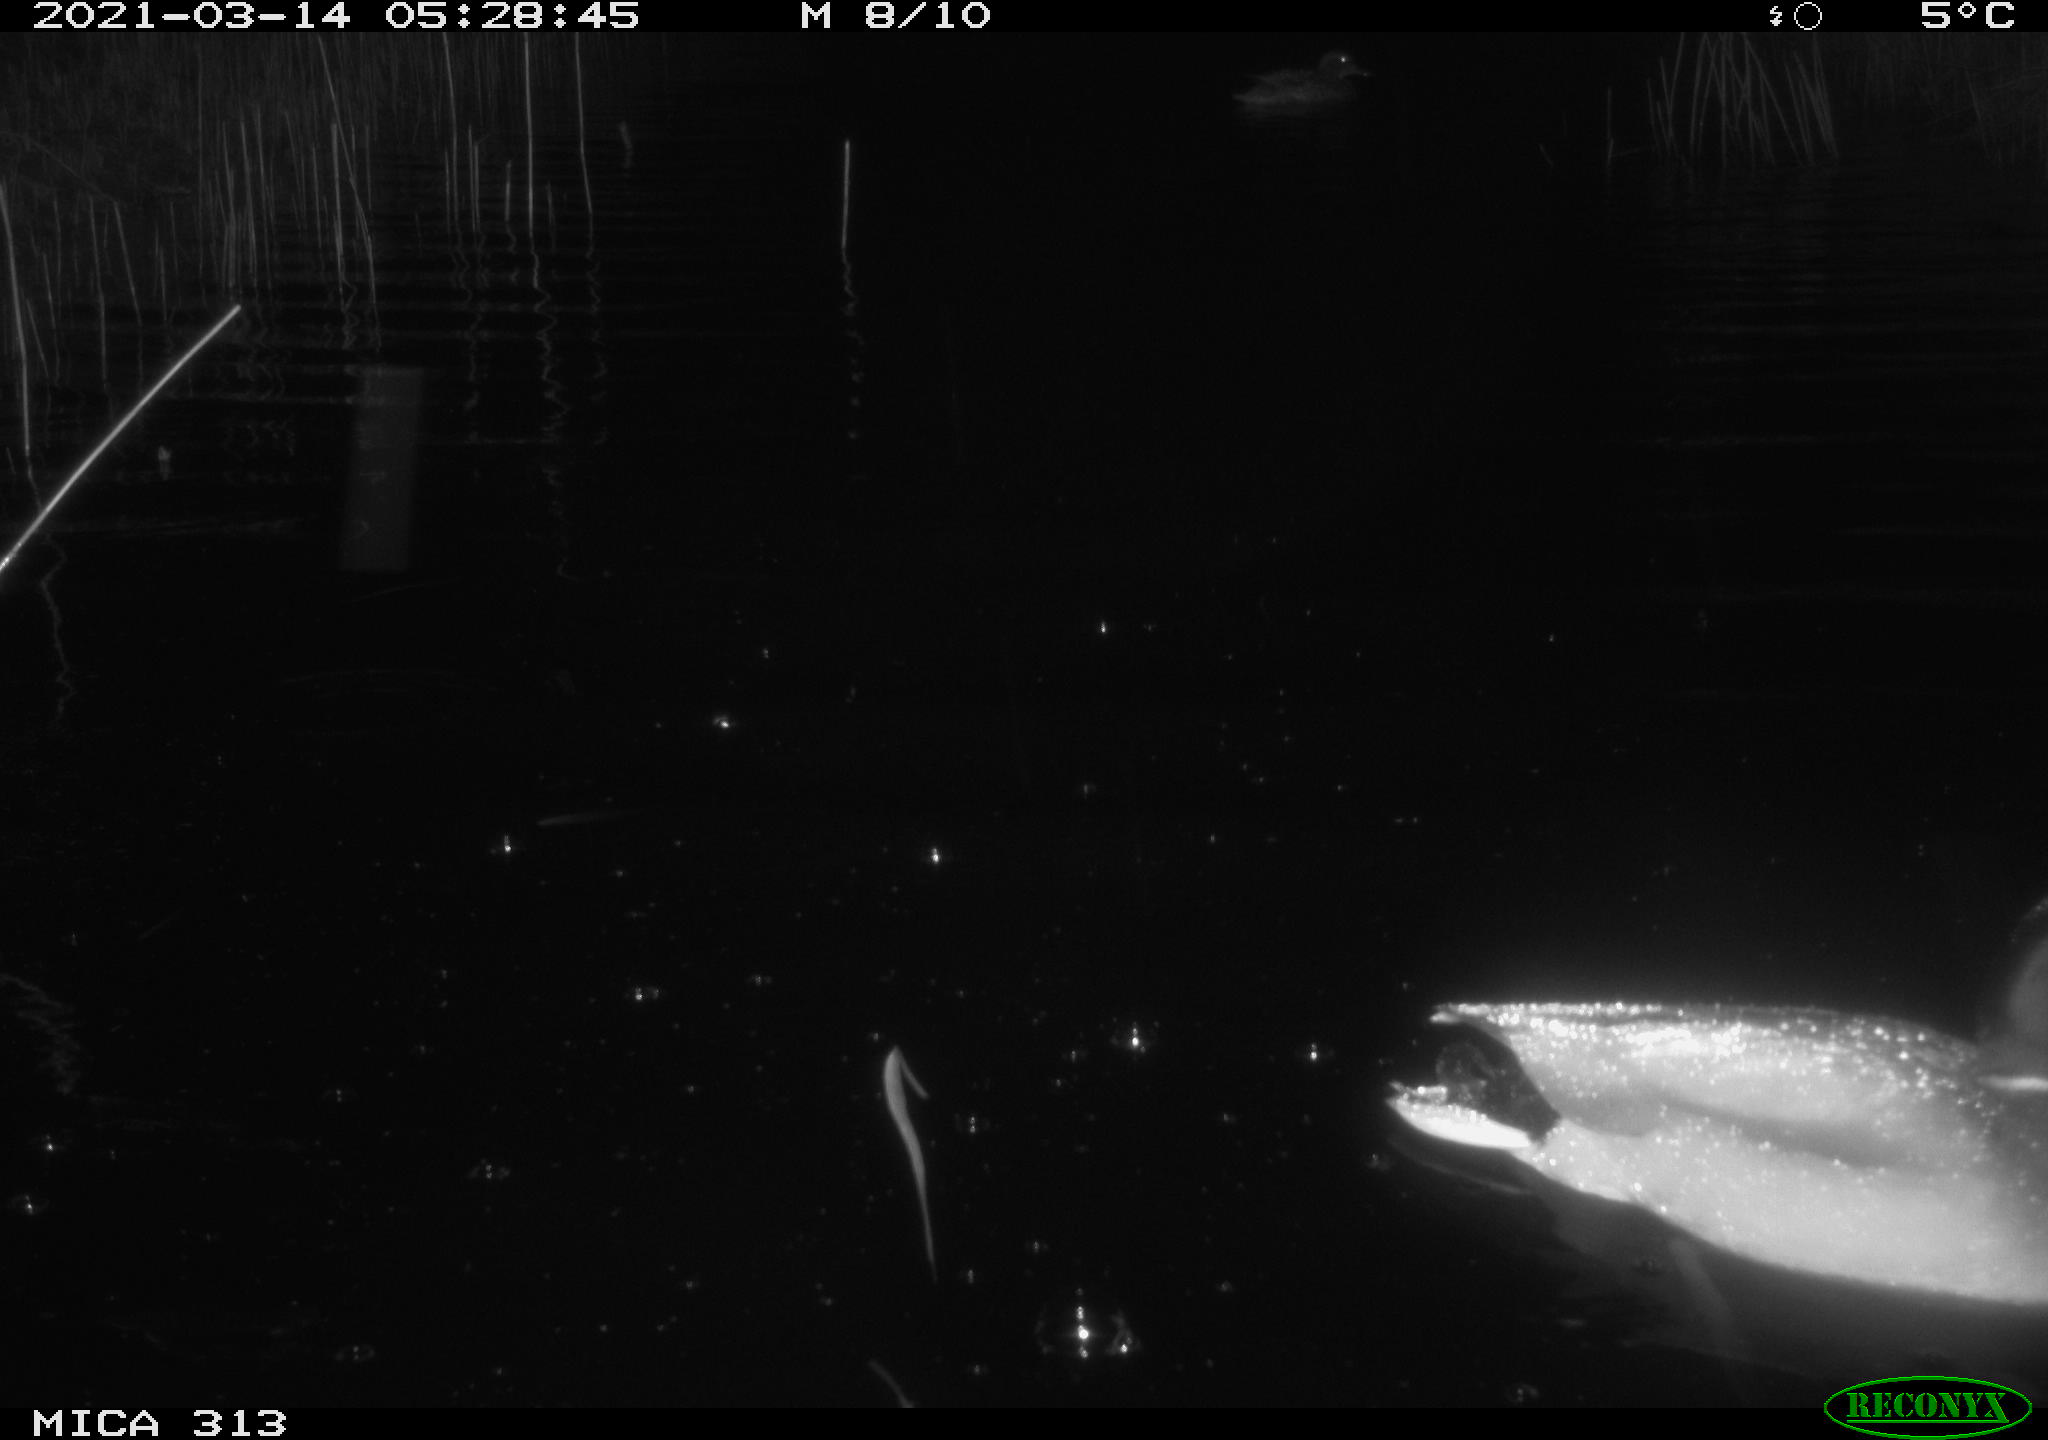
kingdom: Animalia
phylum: Chordata
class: Aves
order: Anseriformes
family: Anatidae
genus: Anas
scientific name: Anas platyrhynchos
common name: Mallard
